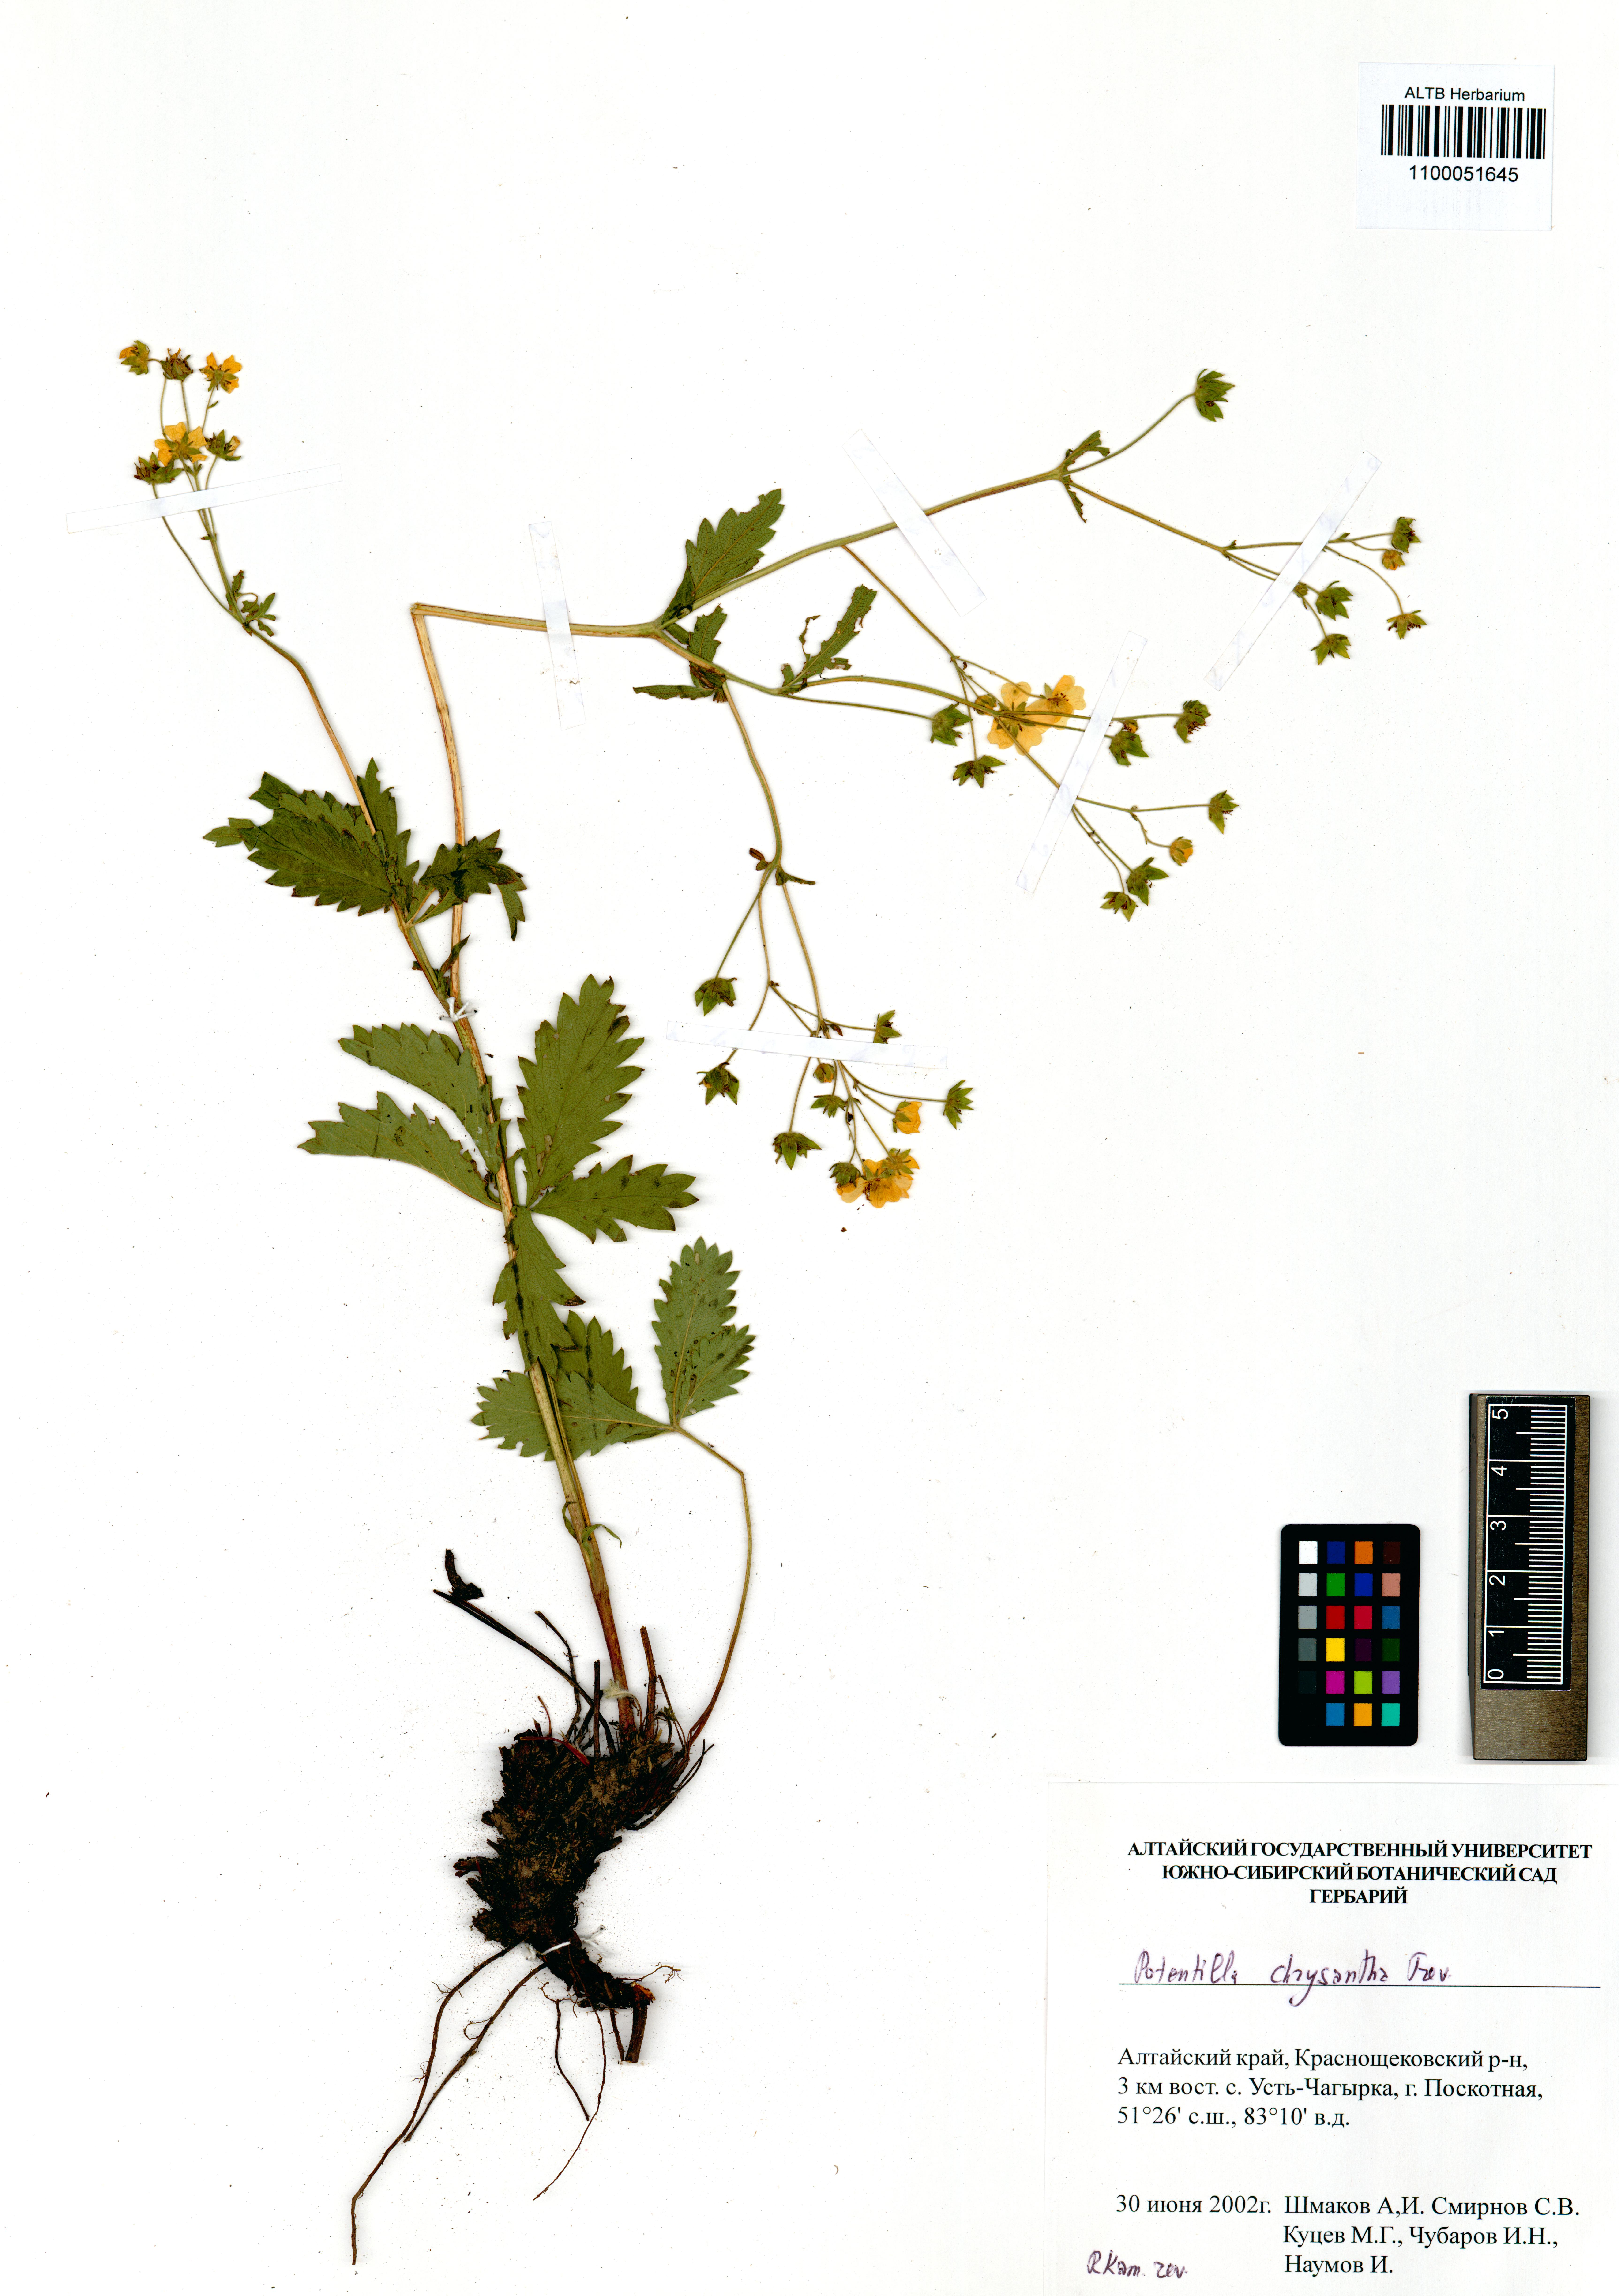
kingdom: Plantae
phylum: Tracheophyta
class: Magnoliopsida
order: Rosales
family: Rosaceae
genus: Potentilla
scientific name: Potentilla chrysantha
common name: Thuringian cinquefoil
